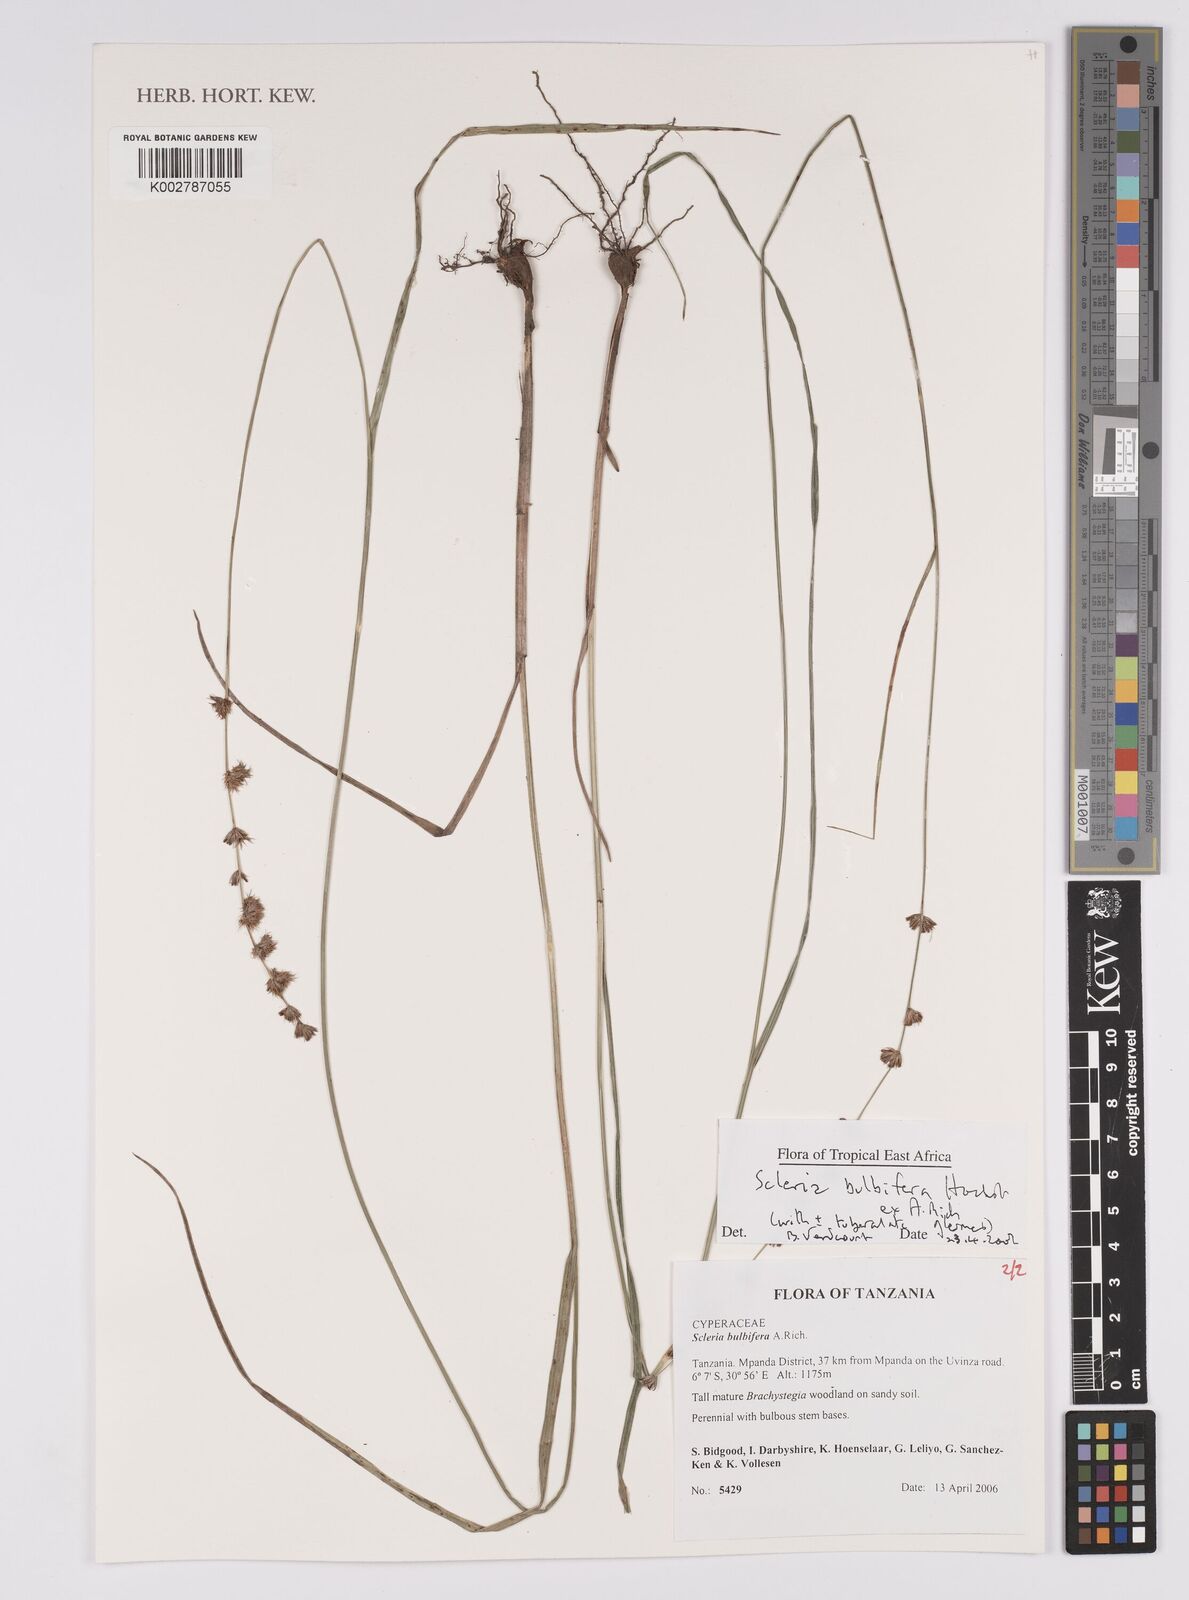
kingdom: Plantae
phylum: Tracheophyta
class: Liliopsida
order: Poales
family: Cyperaceae
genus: Scleria
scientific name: Scleria bulbifera
